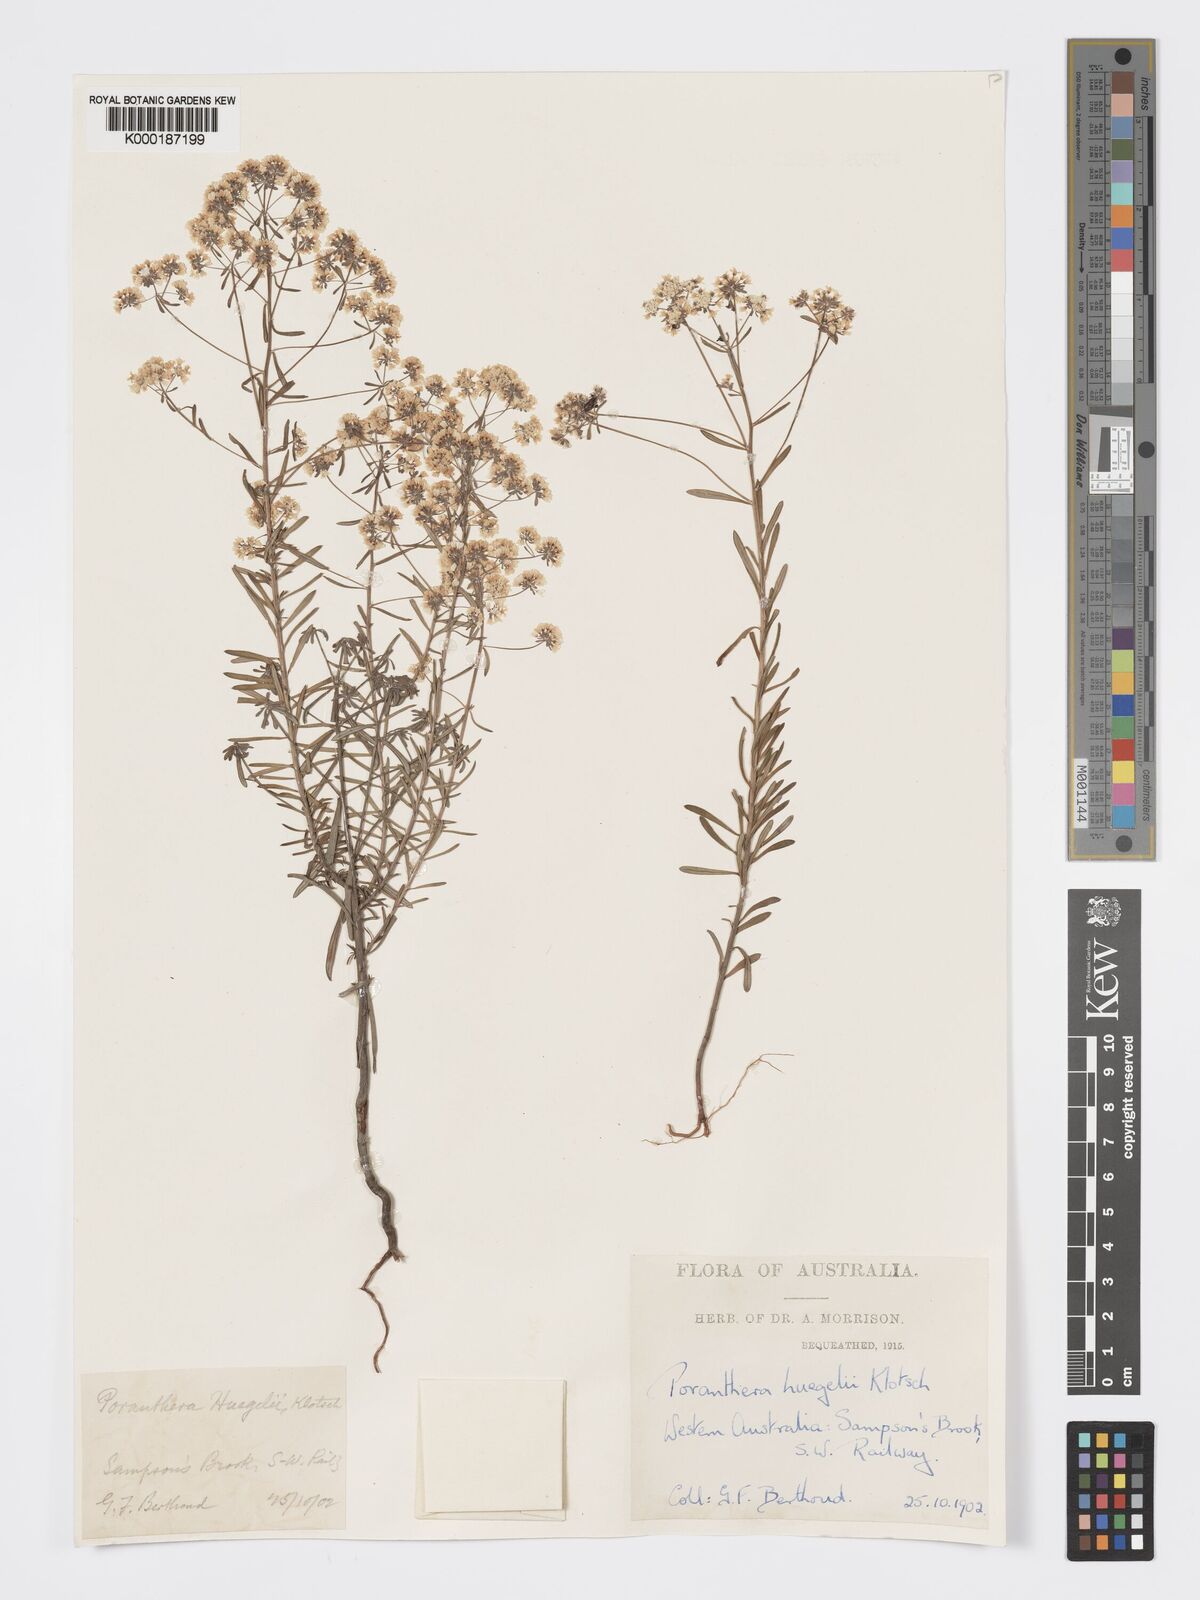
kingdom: Plantae
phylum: Tracheophyta
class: Magnoliopsida
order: Malpighiales
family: Phyllanthaceae
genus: Poranthera
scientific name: Poranthera huegelii
